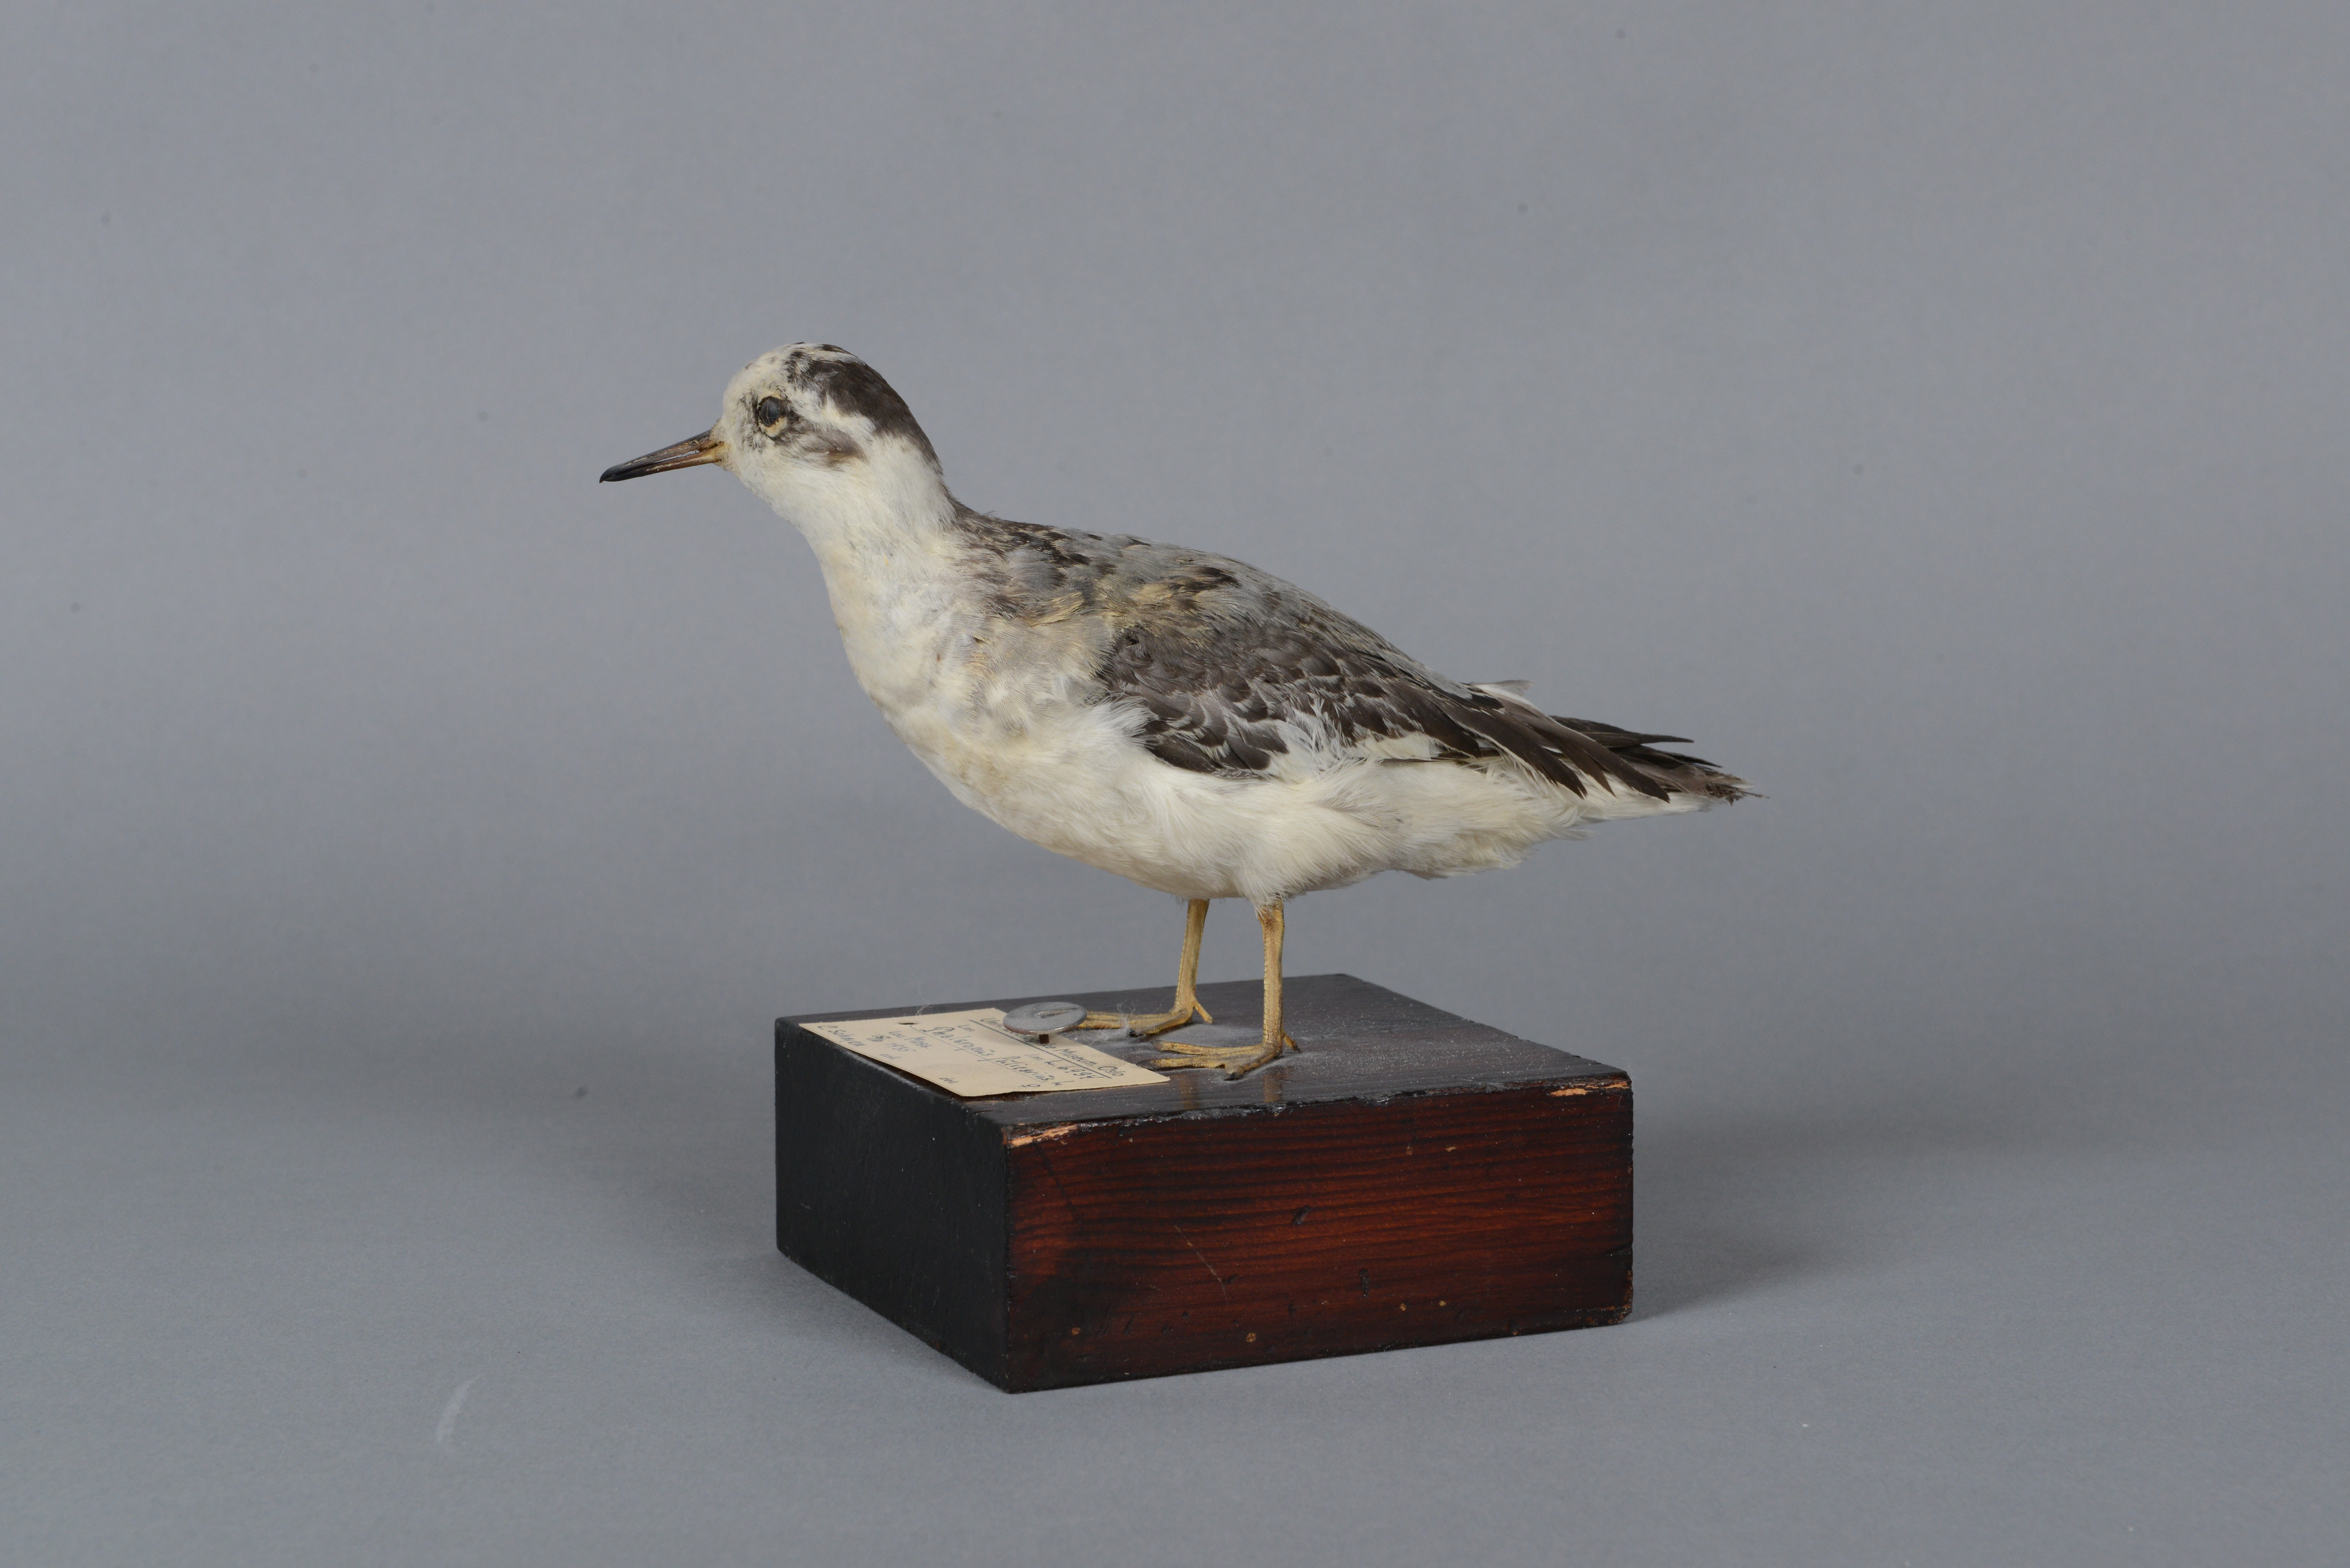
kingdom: Animalia
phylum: Chordata
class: Aves
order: Charadriiformes
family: Scolopacidae
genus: Phalaropus
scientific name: Phalaropus fulicarius
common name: Red phalarope
